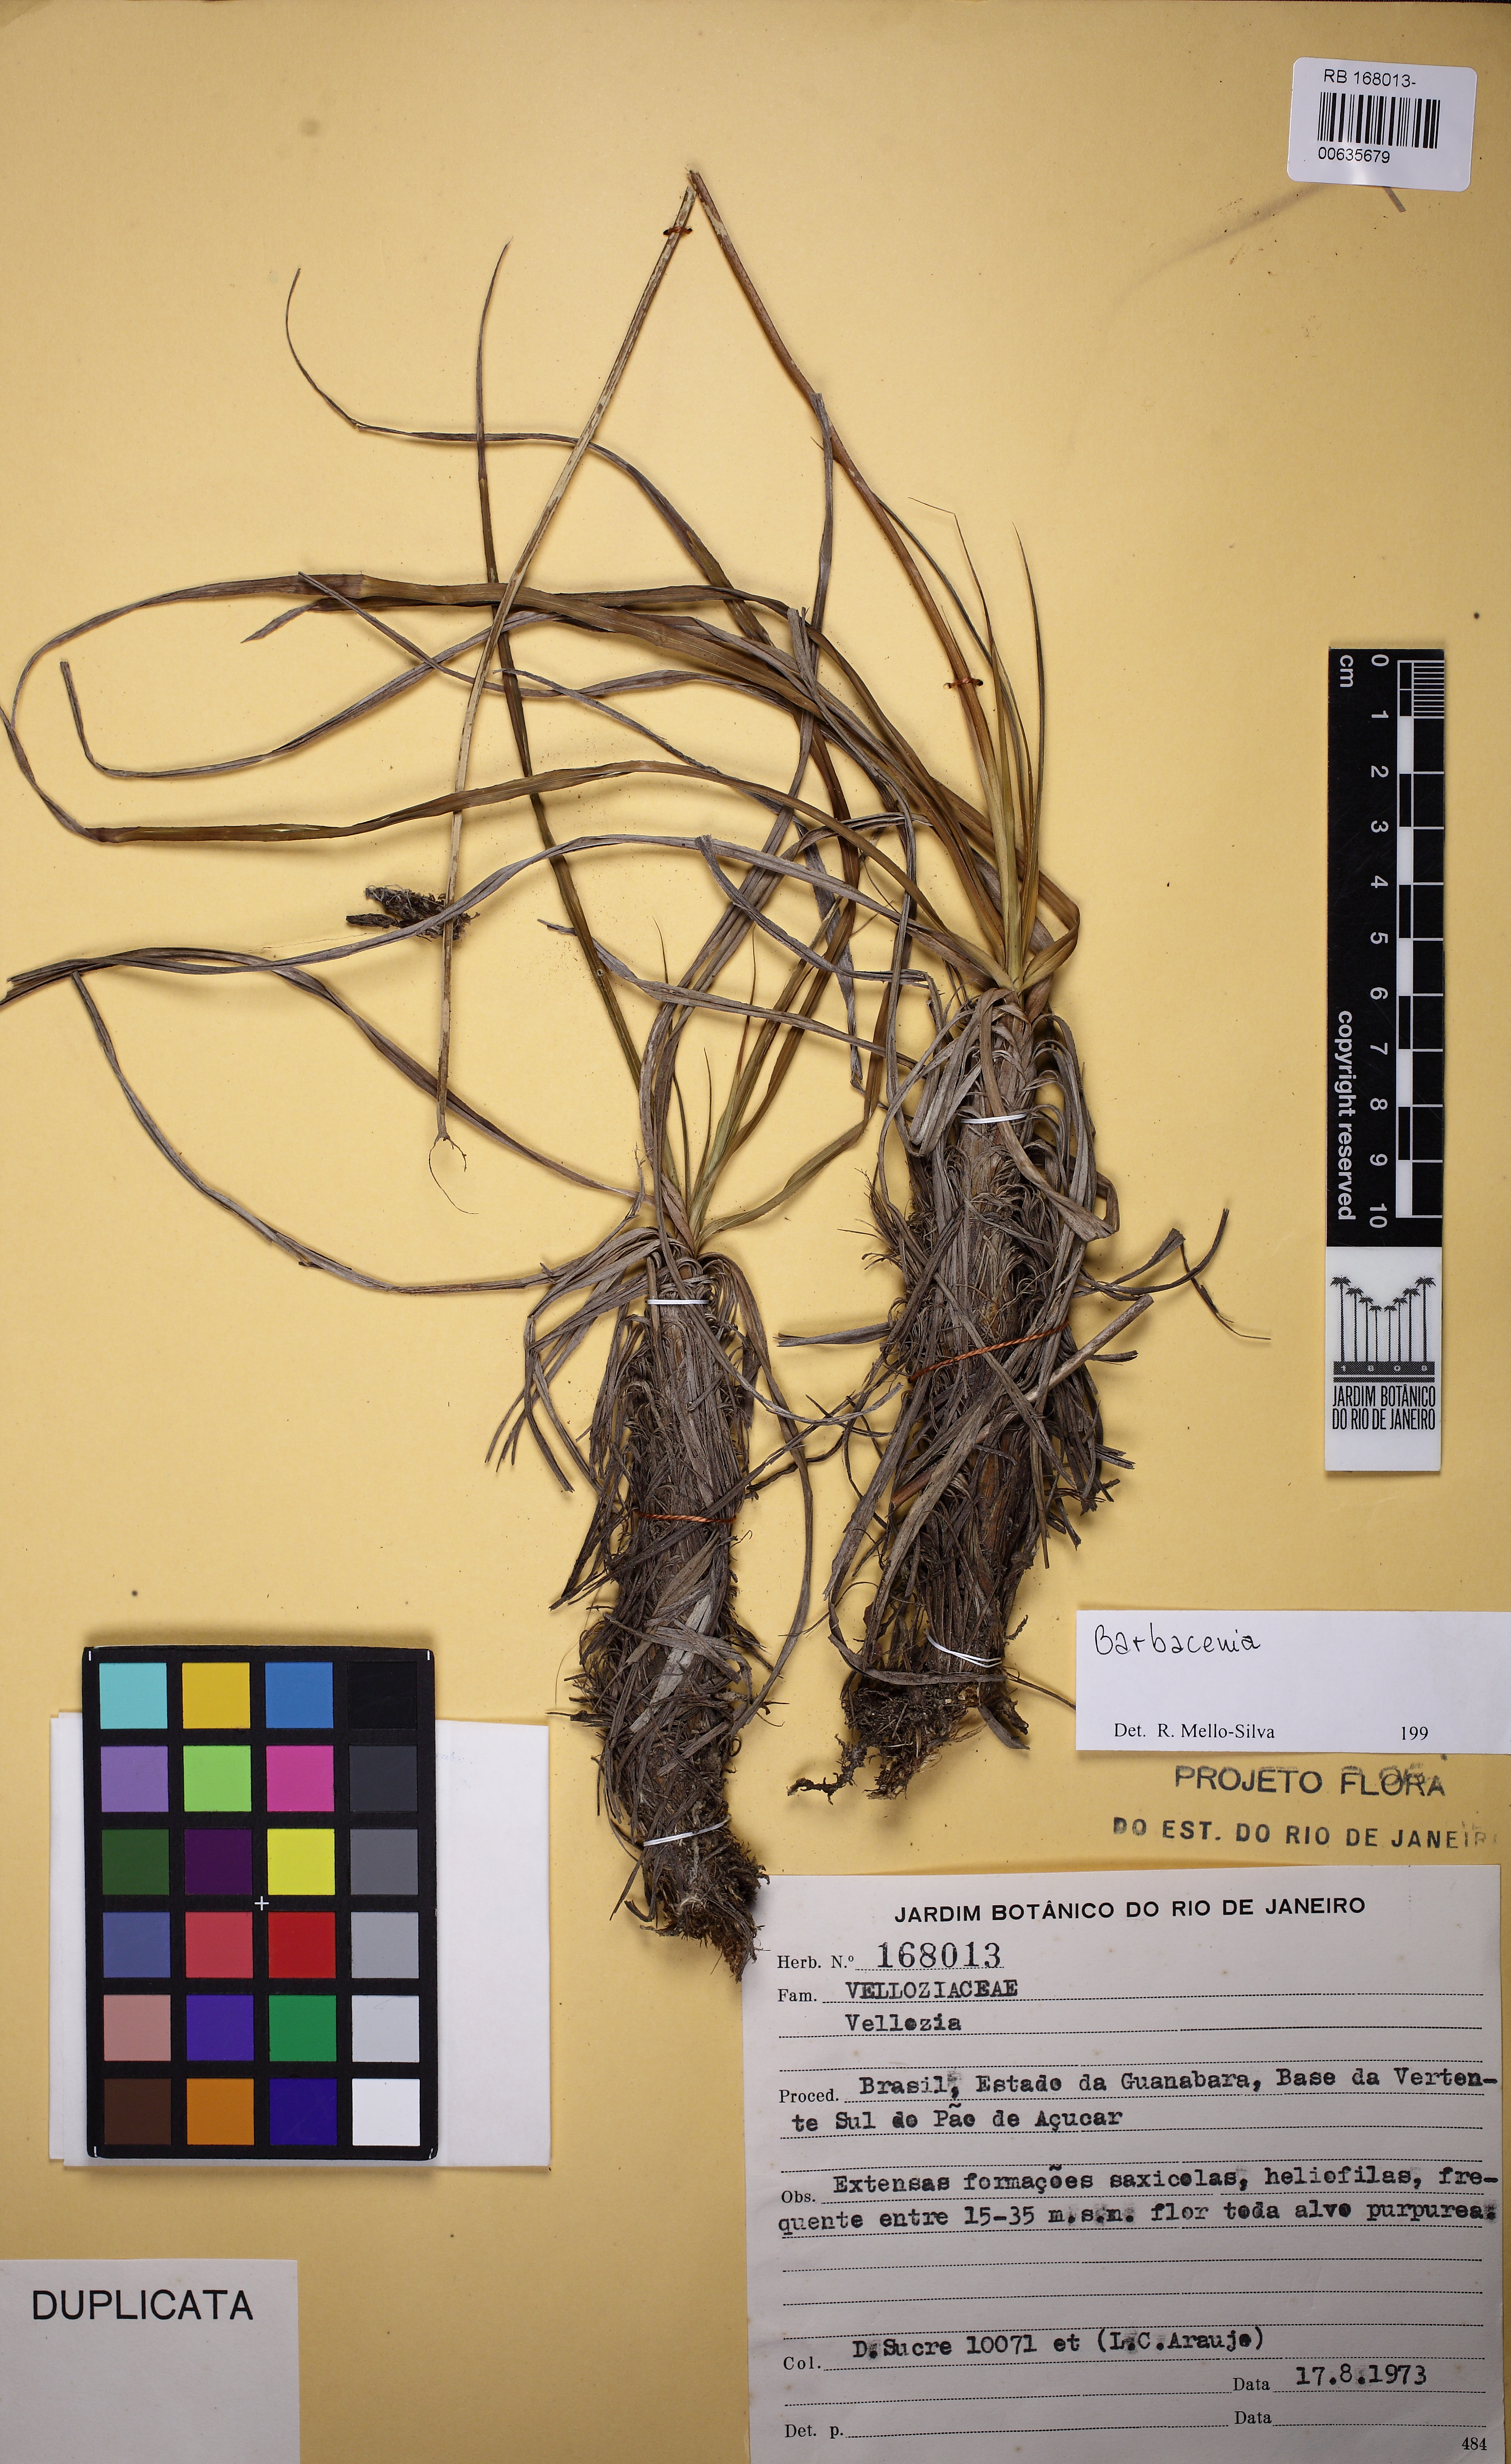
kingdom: Plantae
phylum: Tracheophyta
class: Liliopsida
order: Pandanales
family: Velloziaceae
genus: Barbacenia
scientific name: Barbacenia
